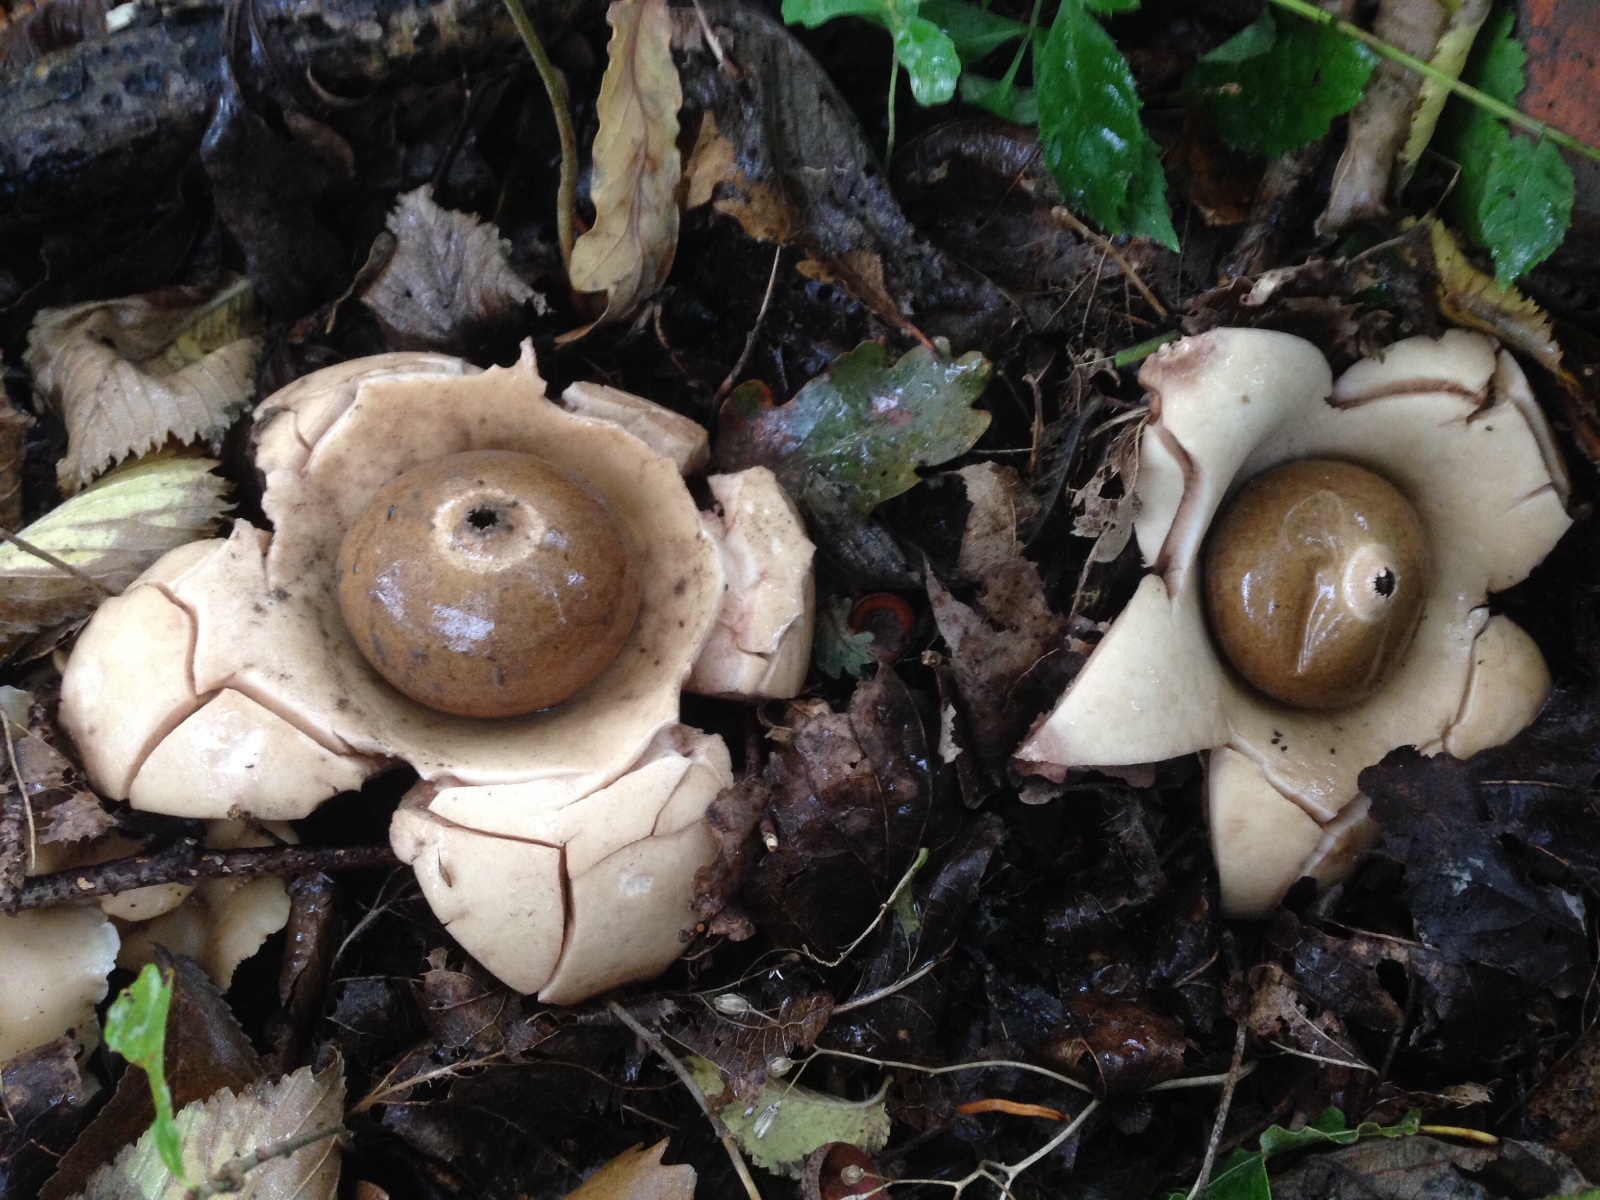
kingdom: Fungi
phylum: Basidiomycota
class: Agaricomycetes
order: Geastrales
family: Geastraceae
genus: Geastrum
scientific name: Geastrum michelianum
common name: kødet stjernebold
